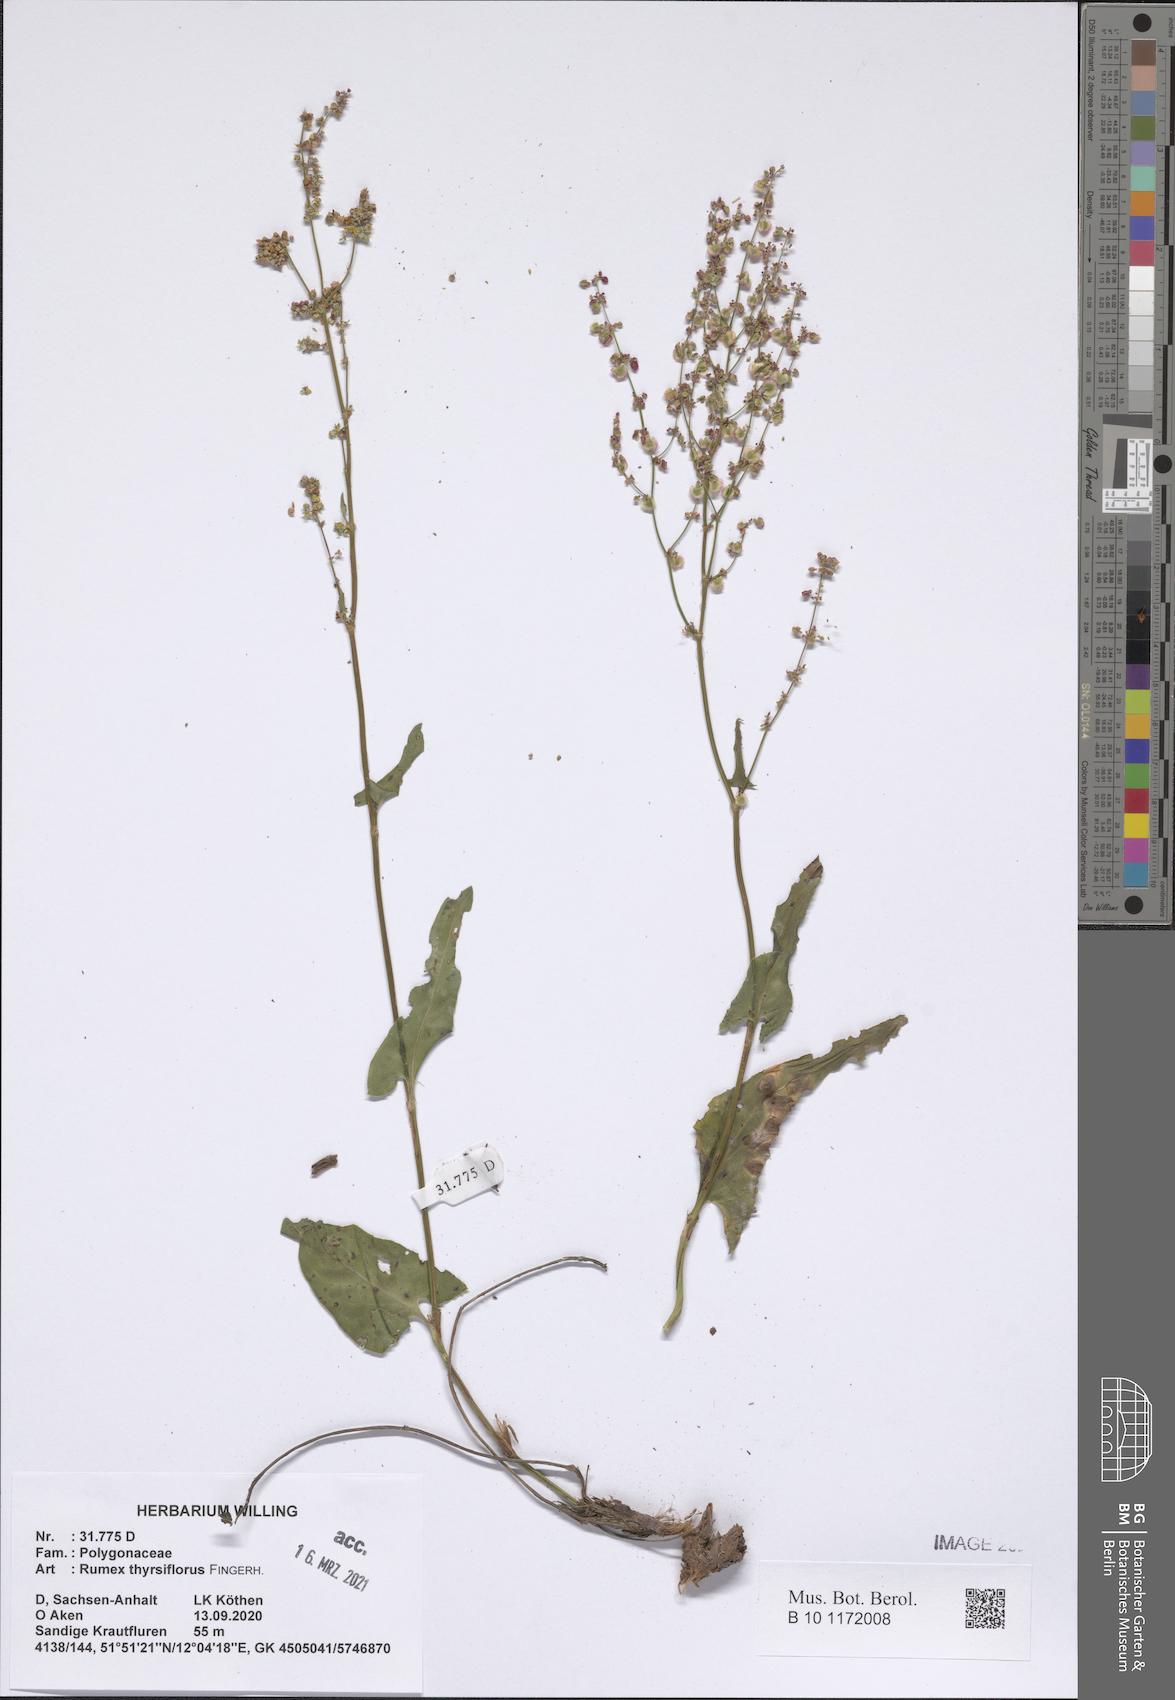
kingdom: Plantae
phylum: Tracheophyta
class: Magnoliopsida
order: Caryophyllales
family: Polygonaceae
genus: Rumex
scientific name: Rumex thyrsiflorus
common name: Garden sorrel
